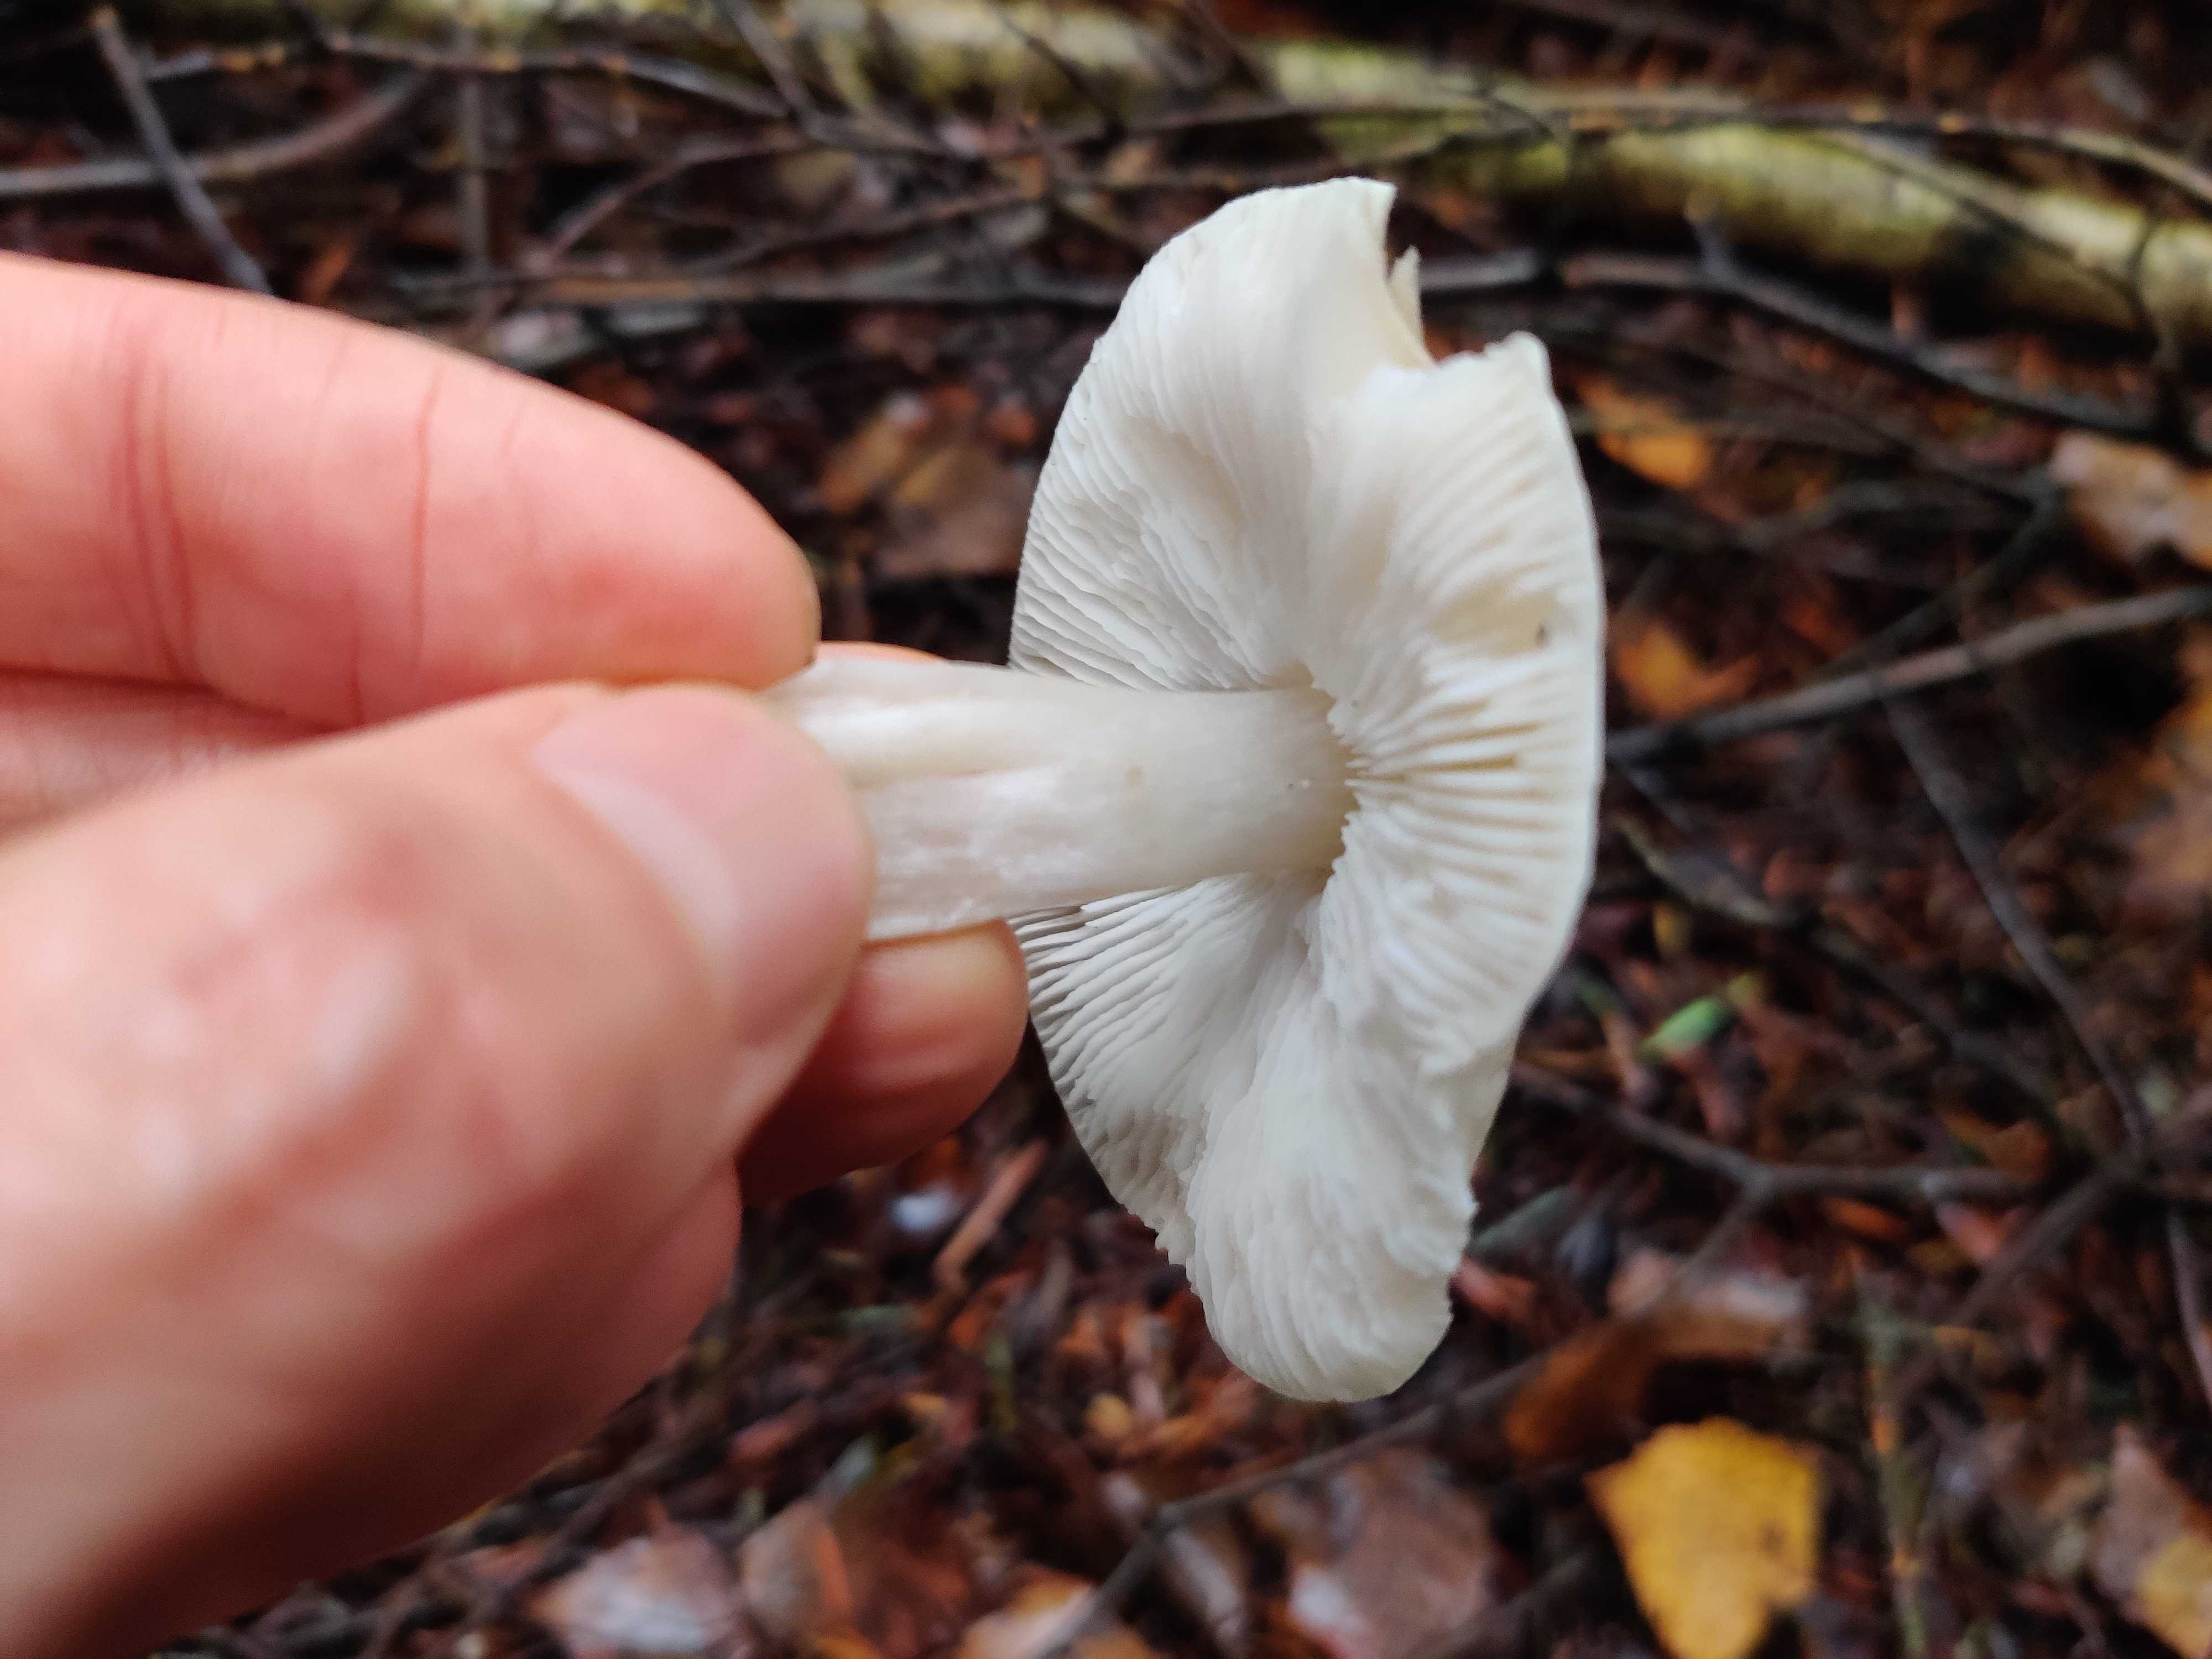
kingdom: Fungi
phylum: Basidiomycota
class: Agaricomycetes
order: Agaricales
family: Tricholomataceae
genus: Tricholoma
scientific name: Tricholoma
